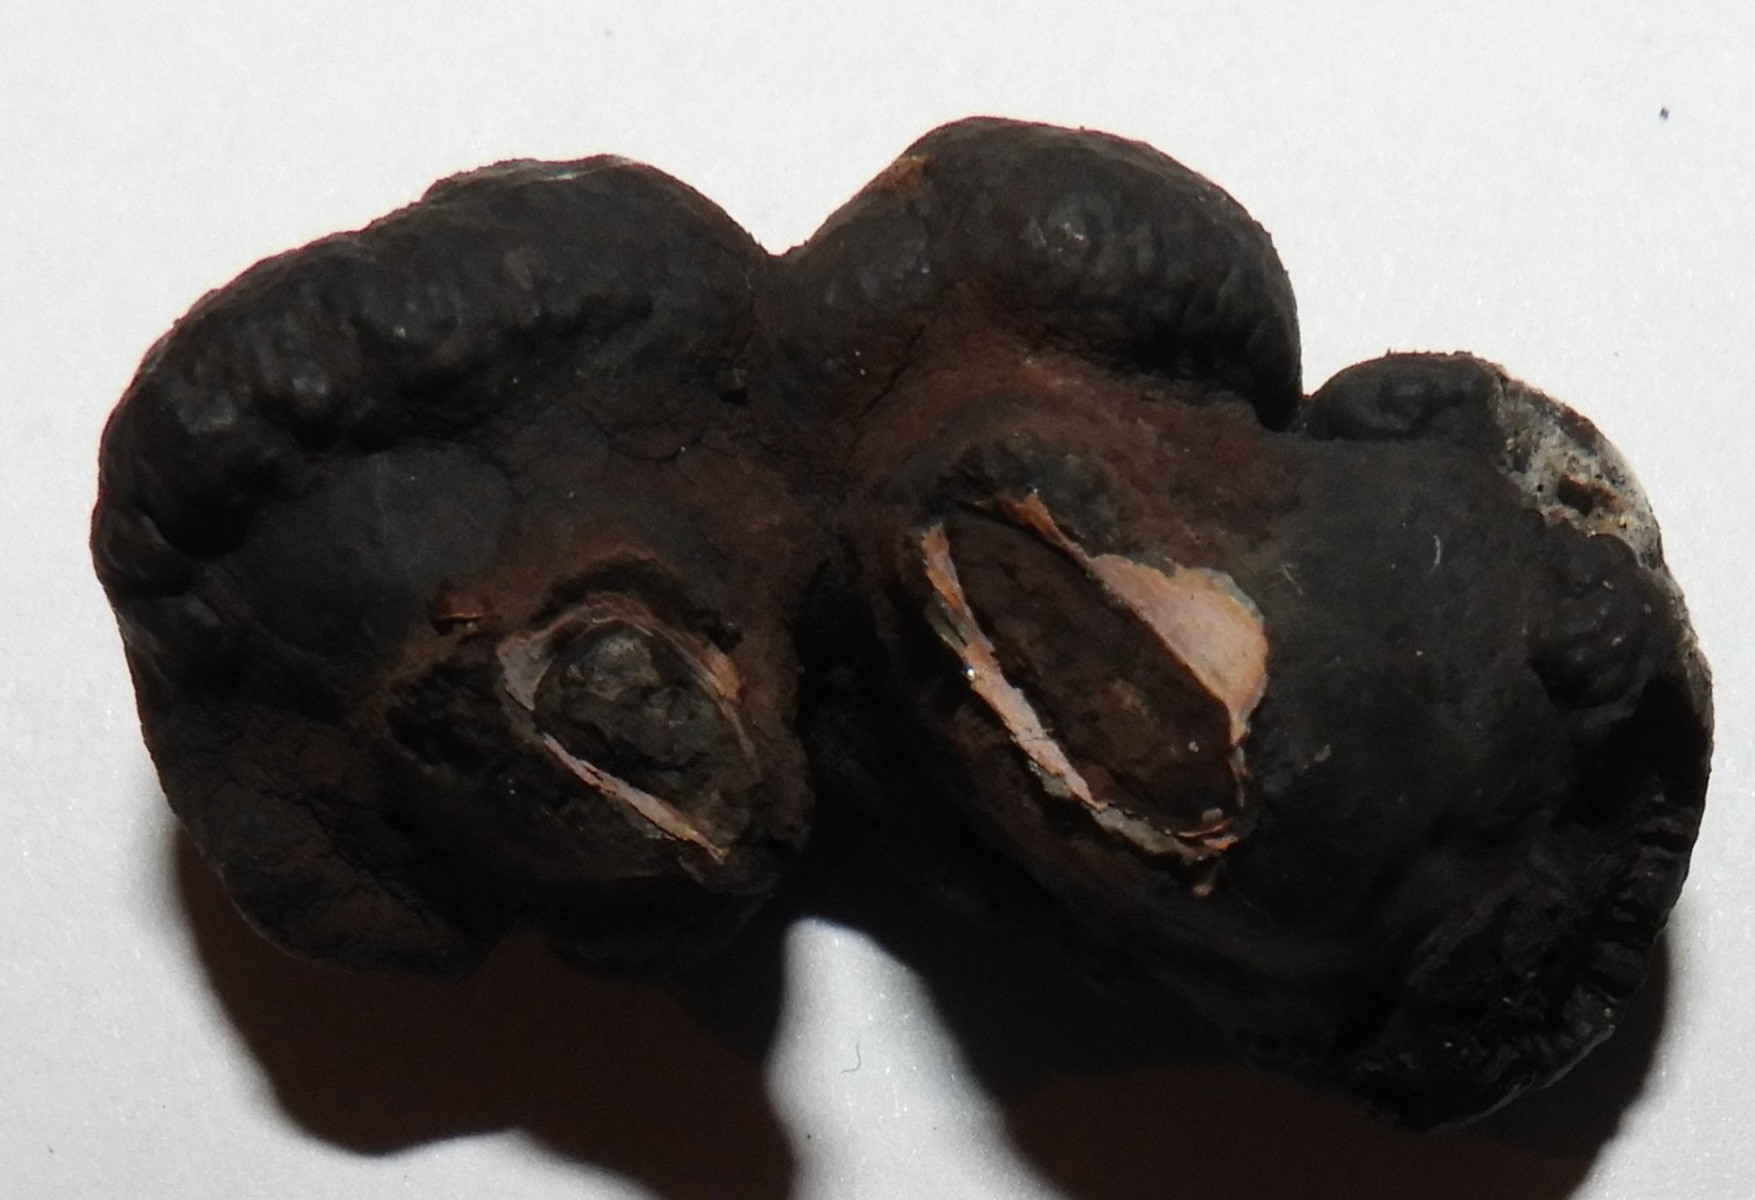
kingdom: Fungi
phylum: Ascomycota
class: Sordariomycetes
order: Xylariales
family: Hypoxylaceae
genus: Daldinia
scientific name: Daldinia decipiens
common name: stilket bæltekugle
